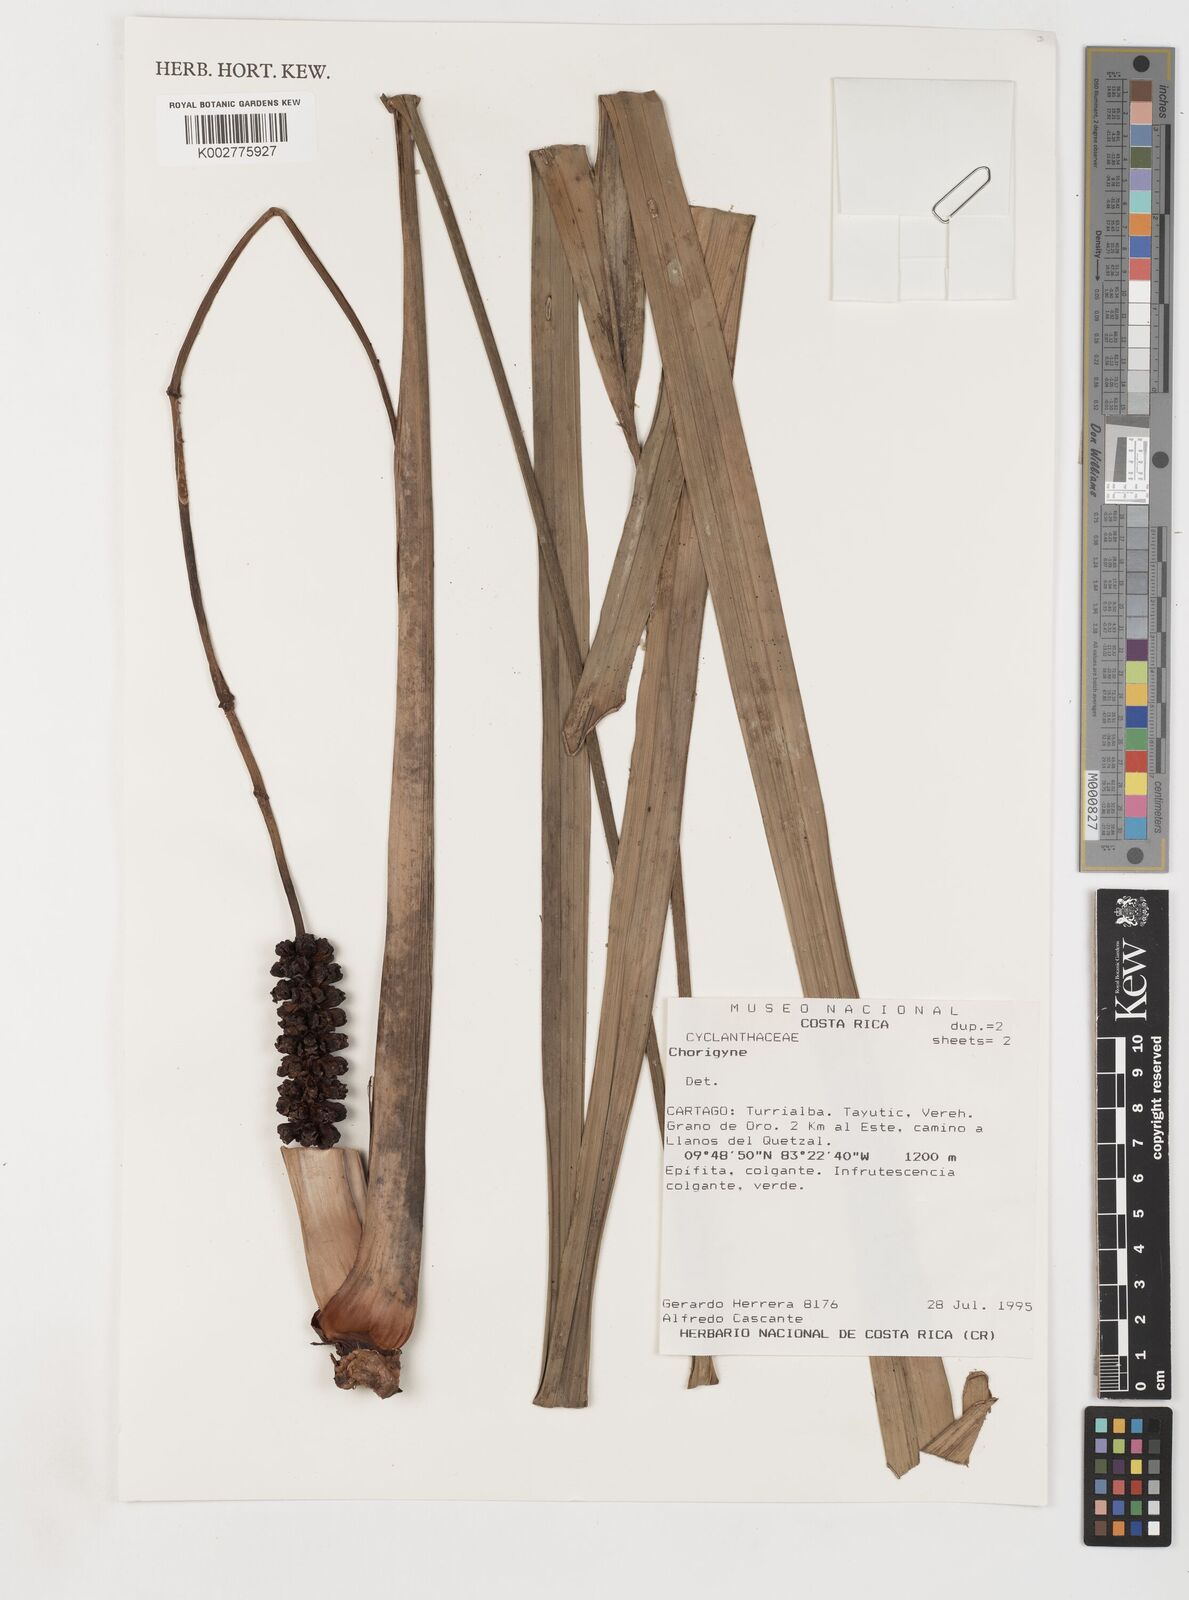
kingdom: Plantae
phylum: Tracheophyta
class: Liliopsida
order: Pandanales
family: Cyclanthaceae
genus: Chorigyne
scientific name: Chorigyne
